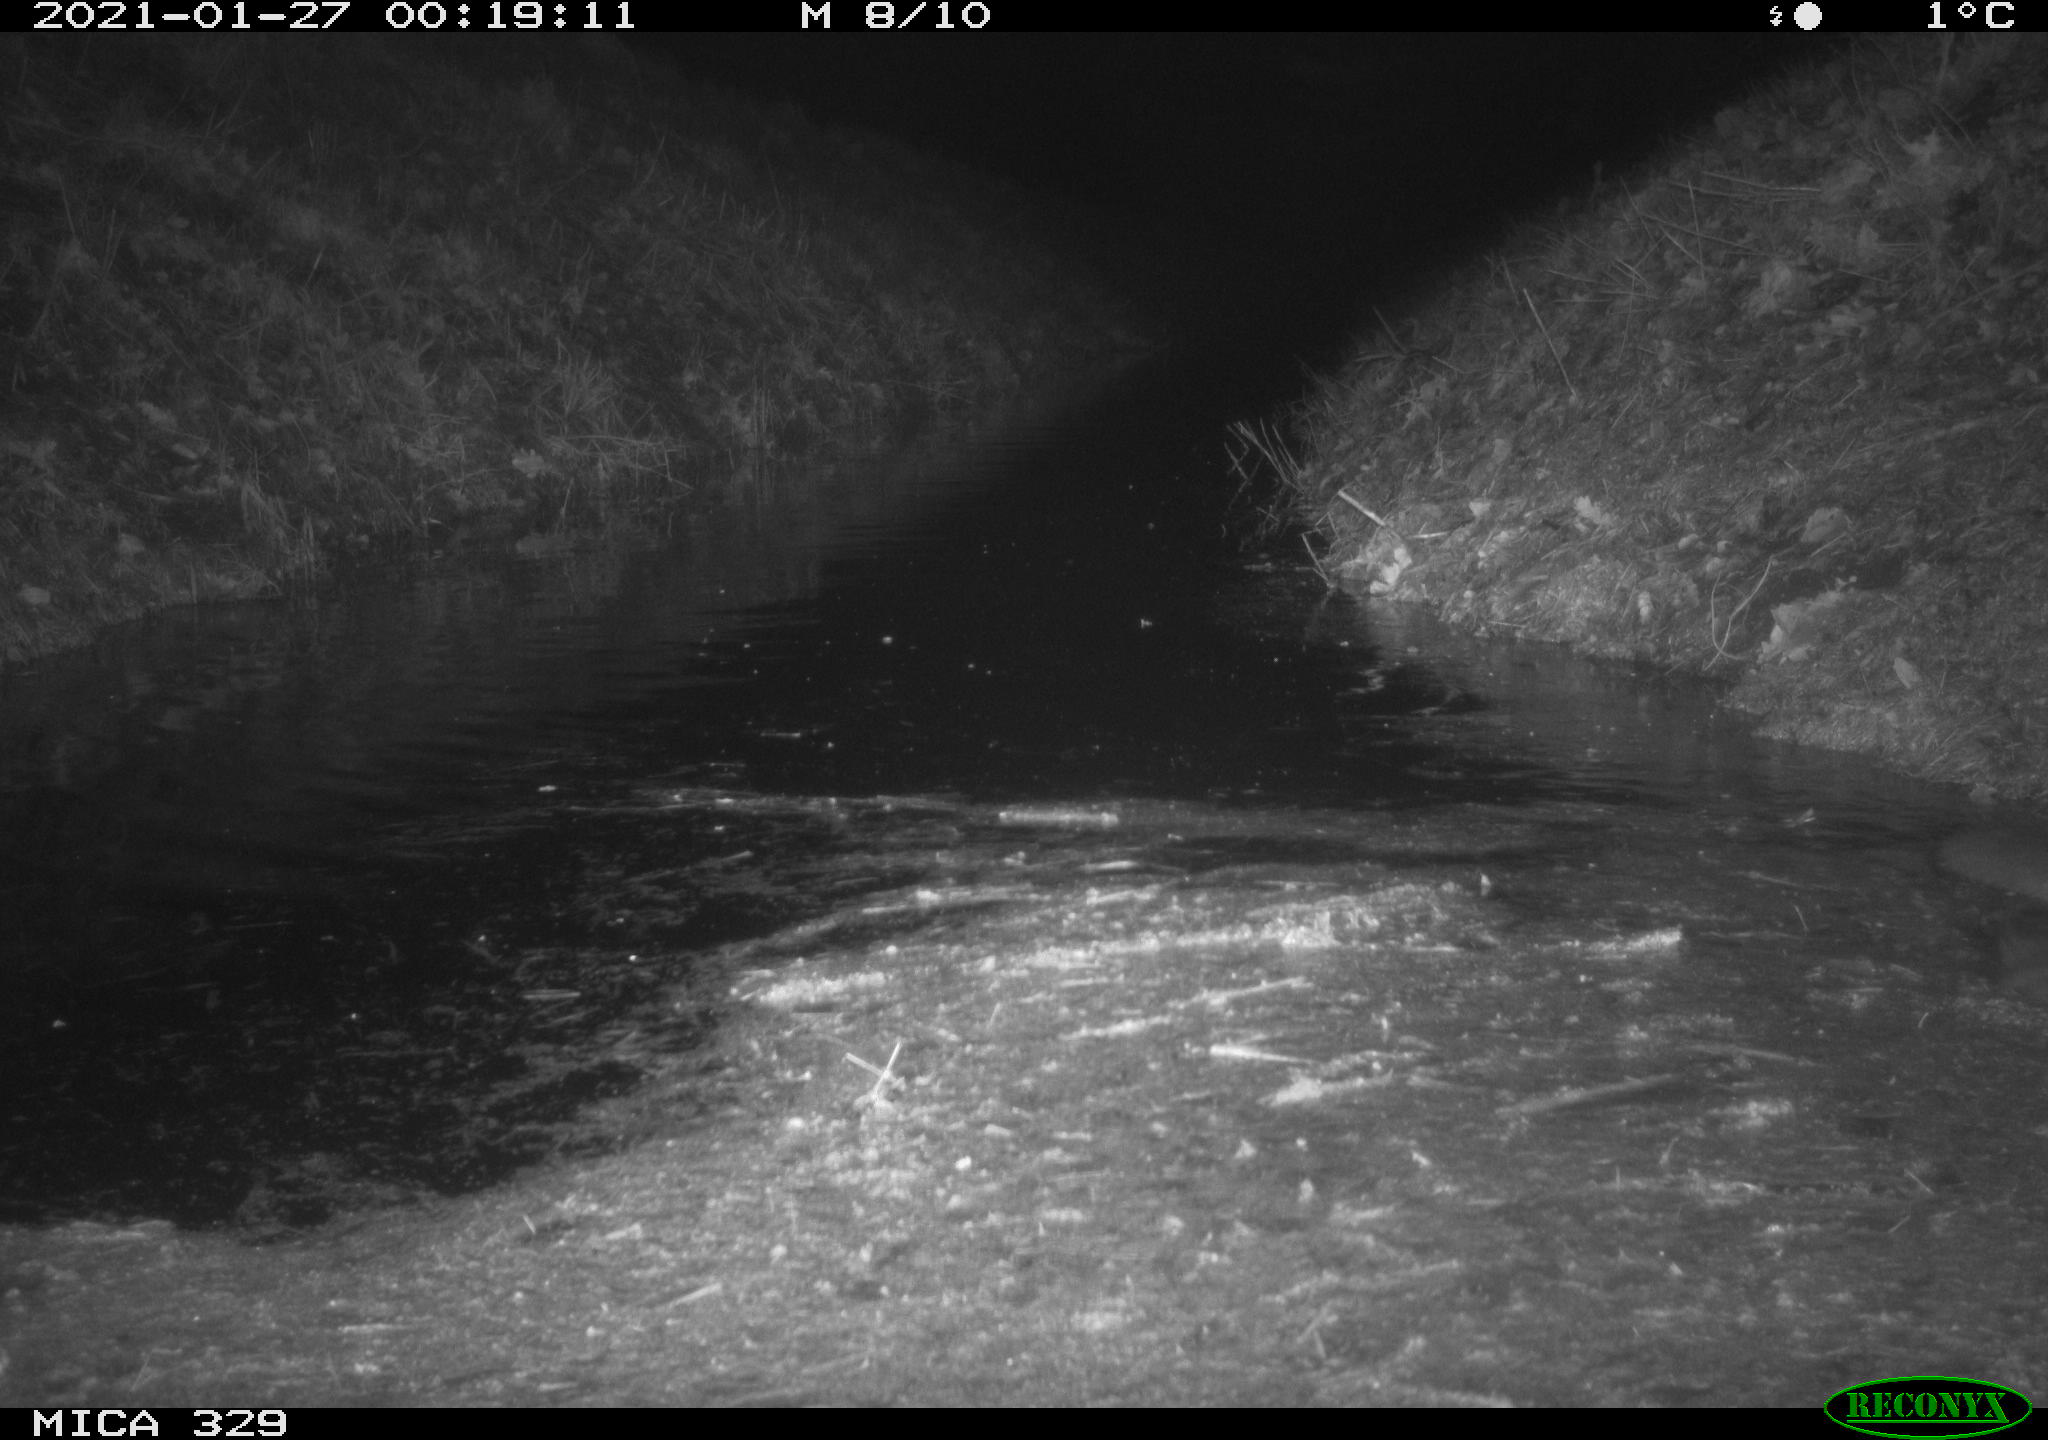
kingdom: Animalia
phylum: Chordata
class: Mammalia
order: Rodentia
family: Myocastoridae
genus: Myocastor
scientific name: Myocastor coypus
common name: Coypu
